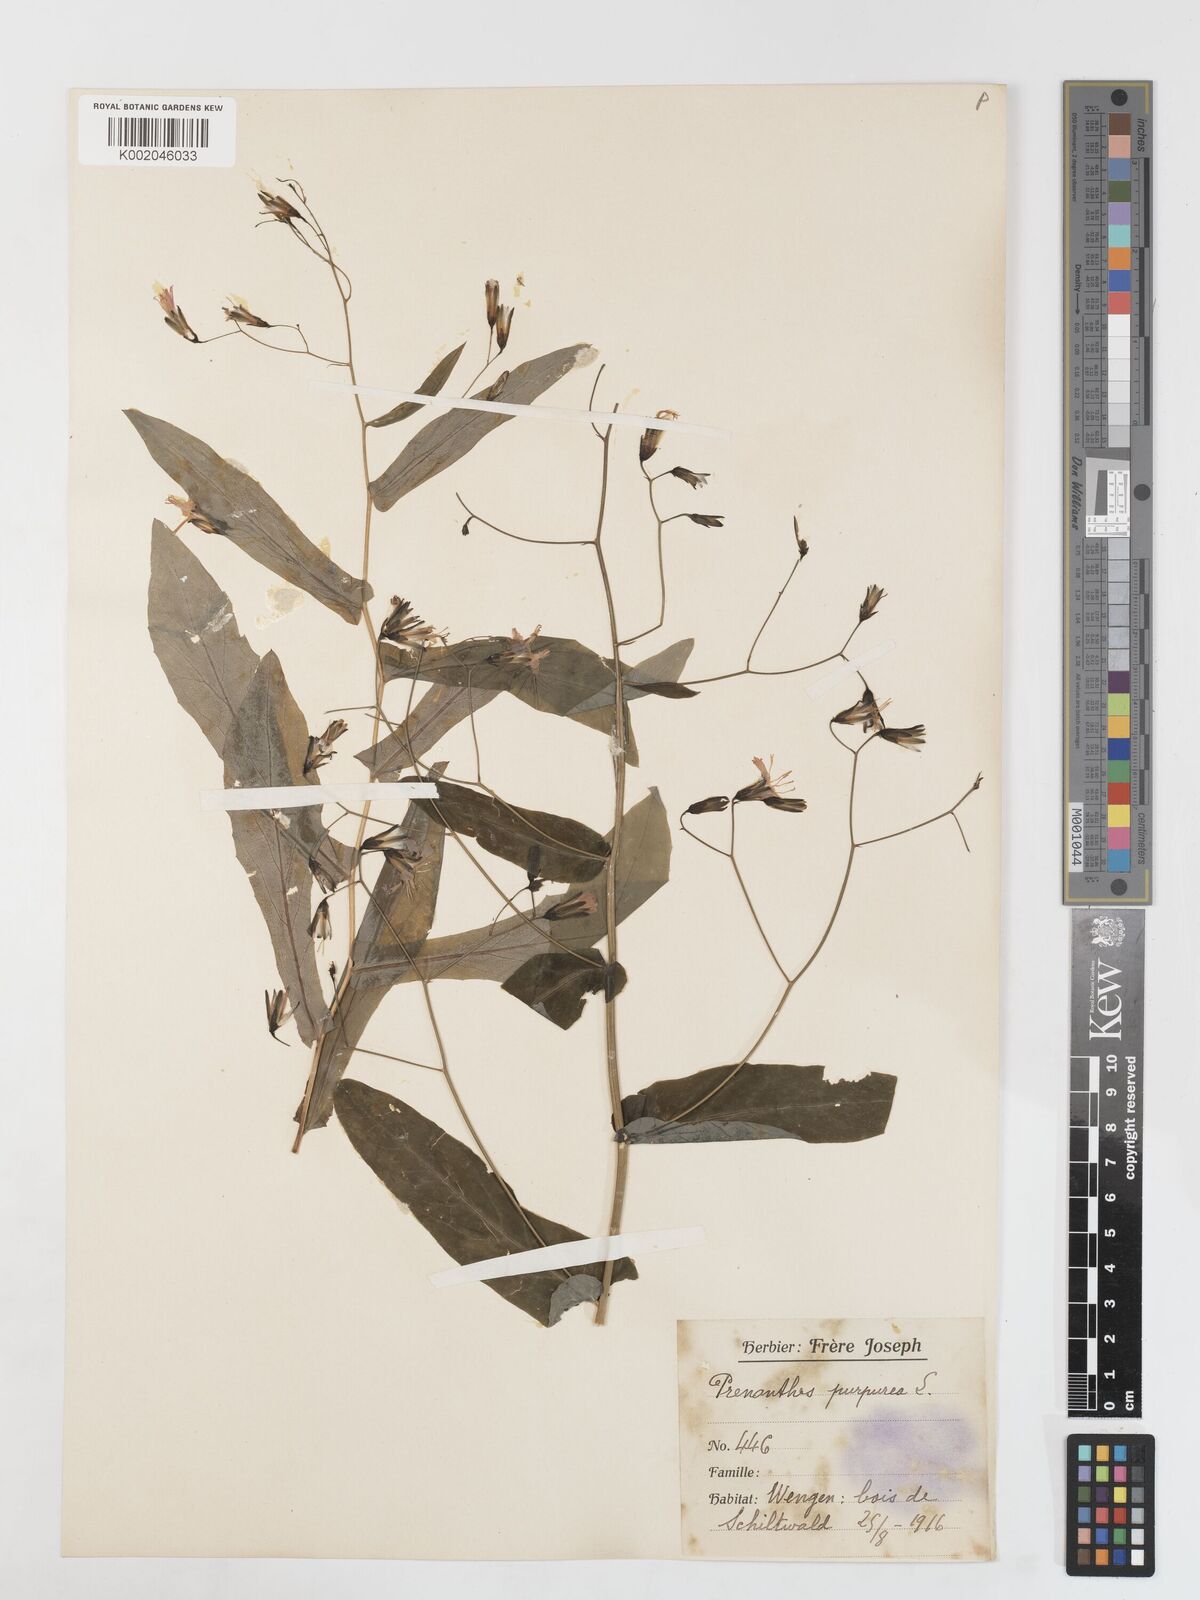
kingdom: Plantae
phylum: Tracheophyta
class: Magnoliopsida
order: Asterales
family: Asteraceae
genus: Prenanthes
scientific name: Prenanthes purpurea
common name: Purple lettuce
